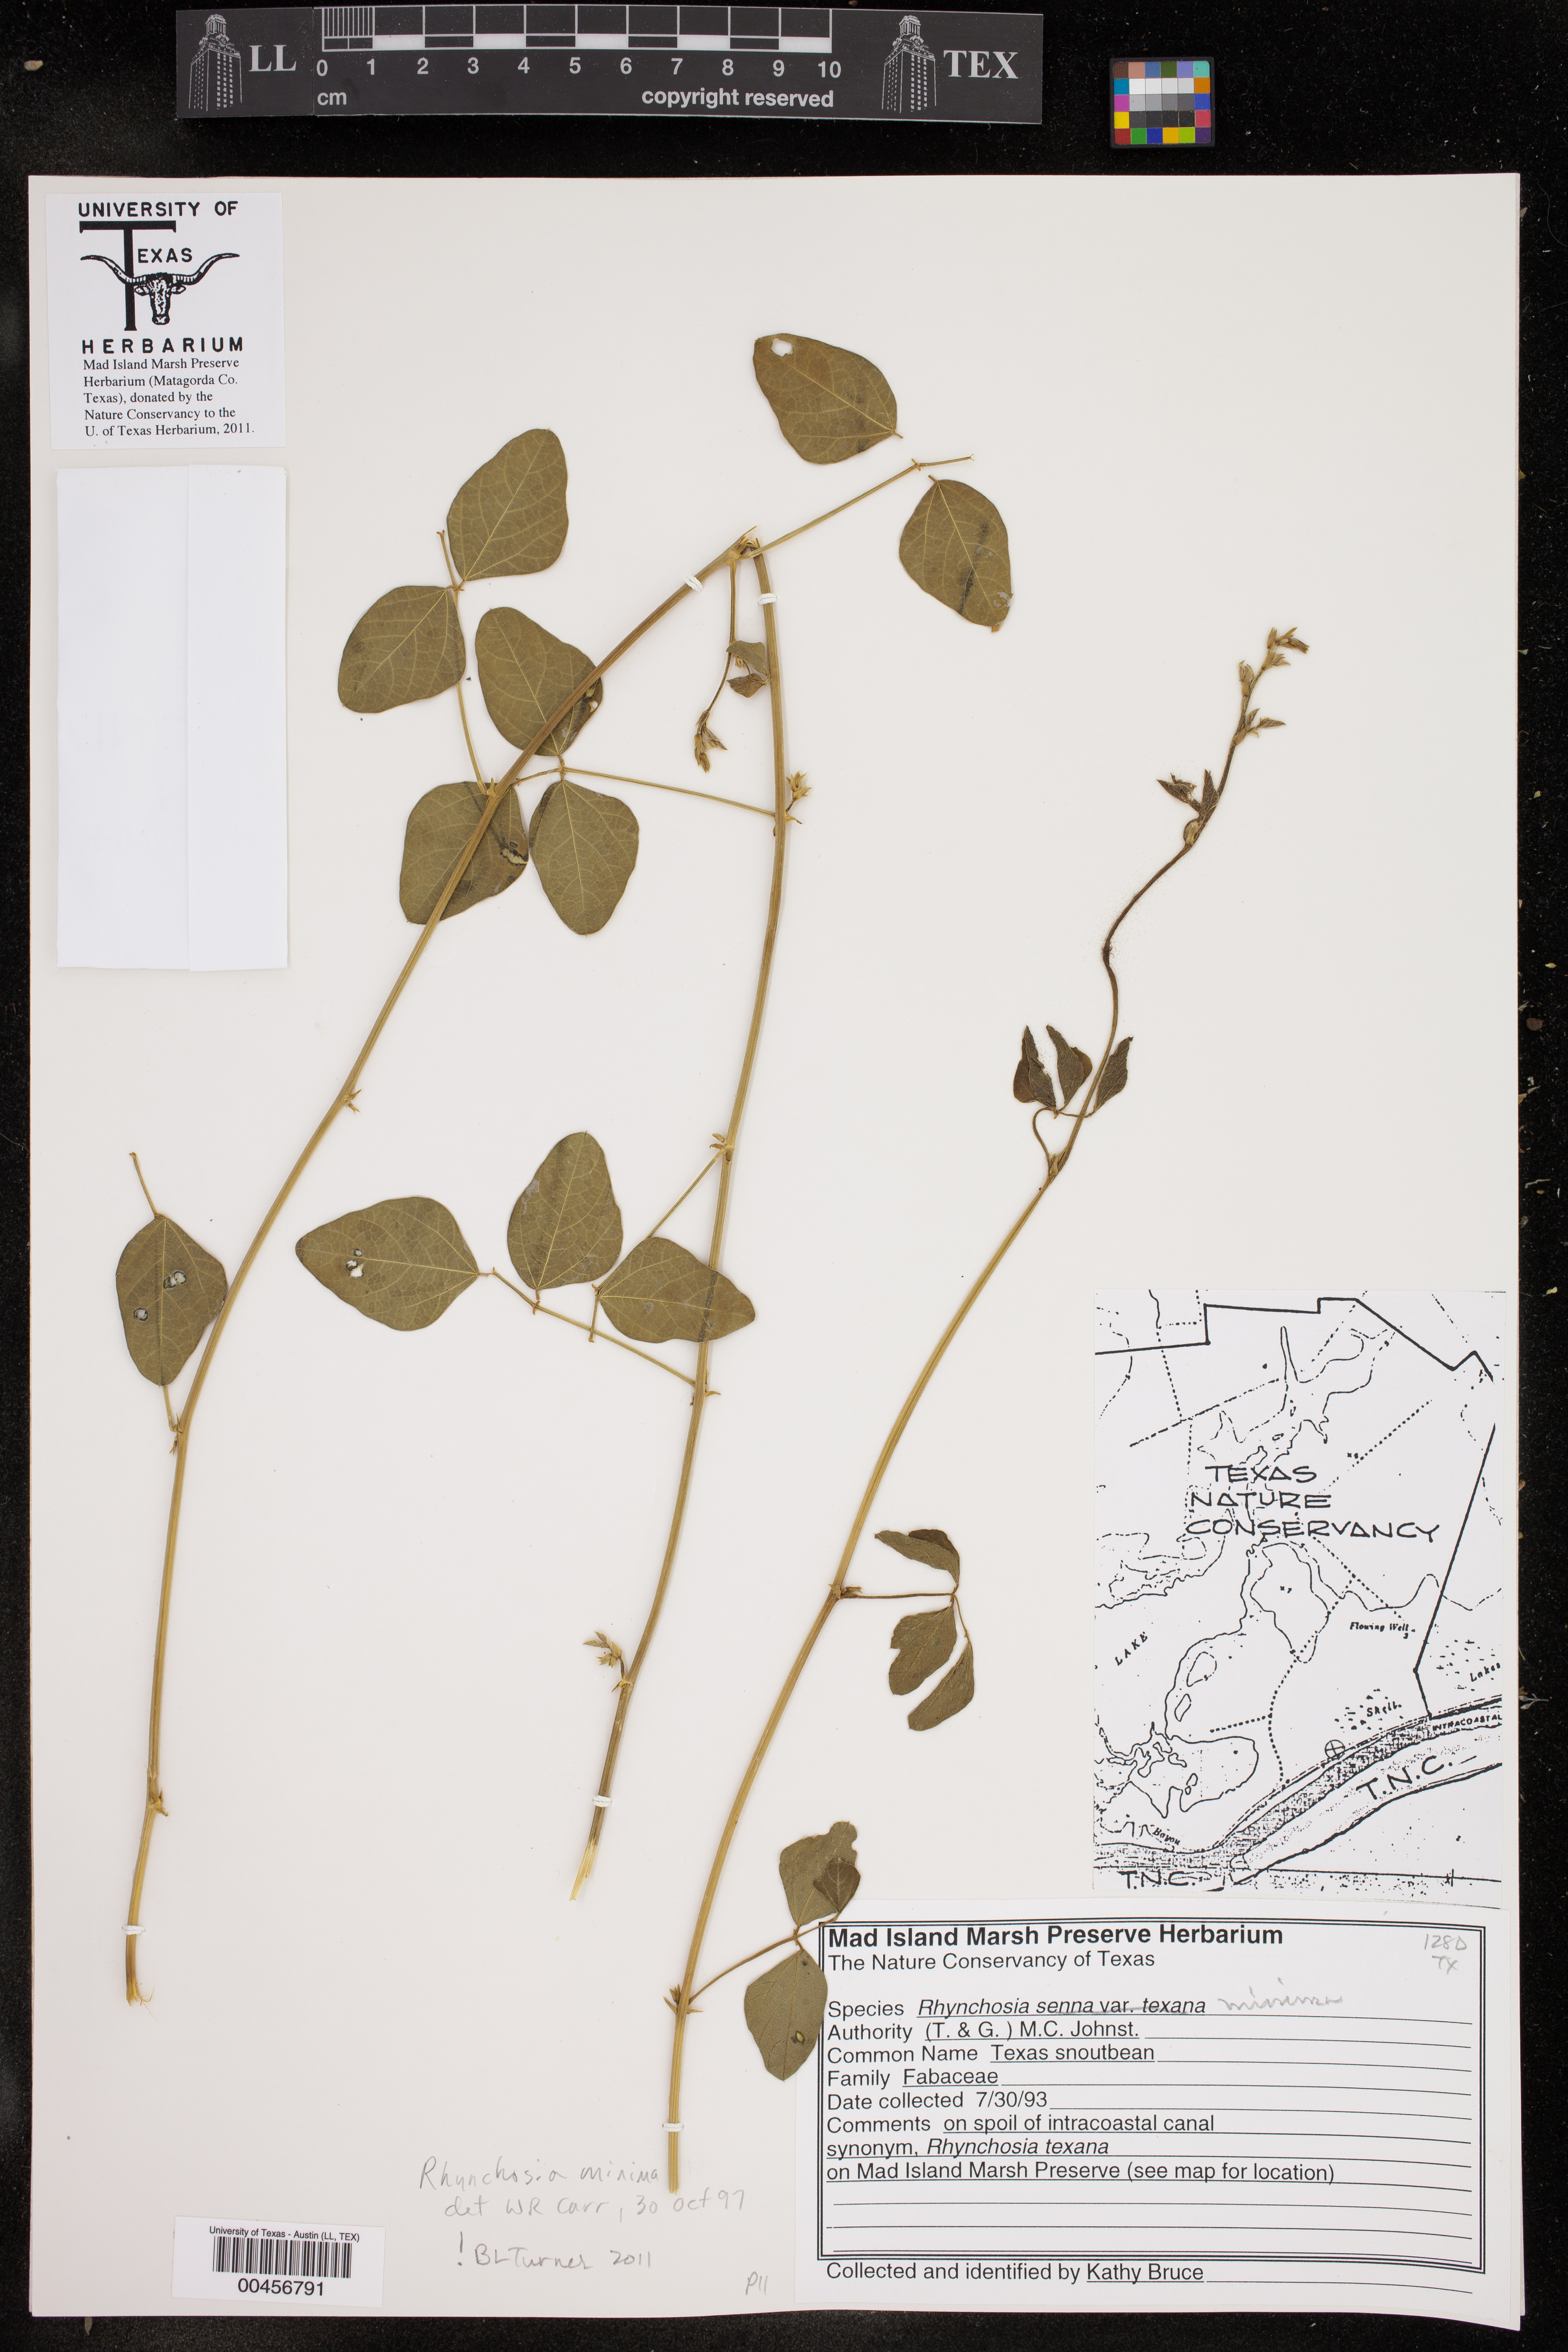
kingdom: Plantae
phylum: Tracheophyta
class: Magnoliopsida
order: Fabales
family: Fabaceae
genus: Rhynchosia
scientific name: Rhynchosia minima
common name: Least snoutbean
